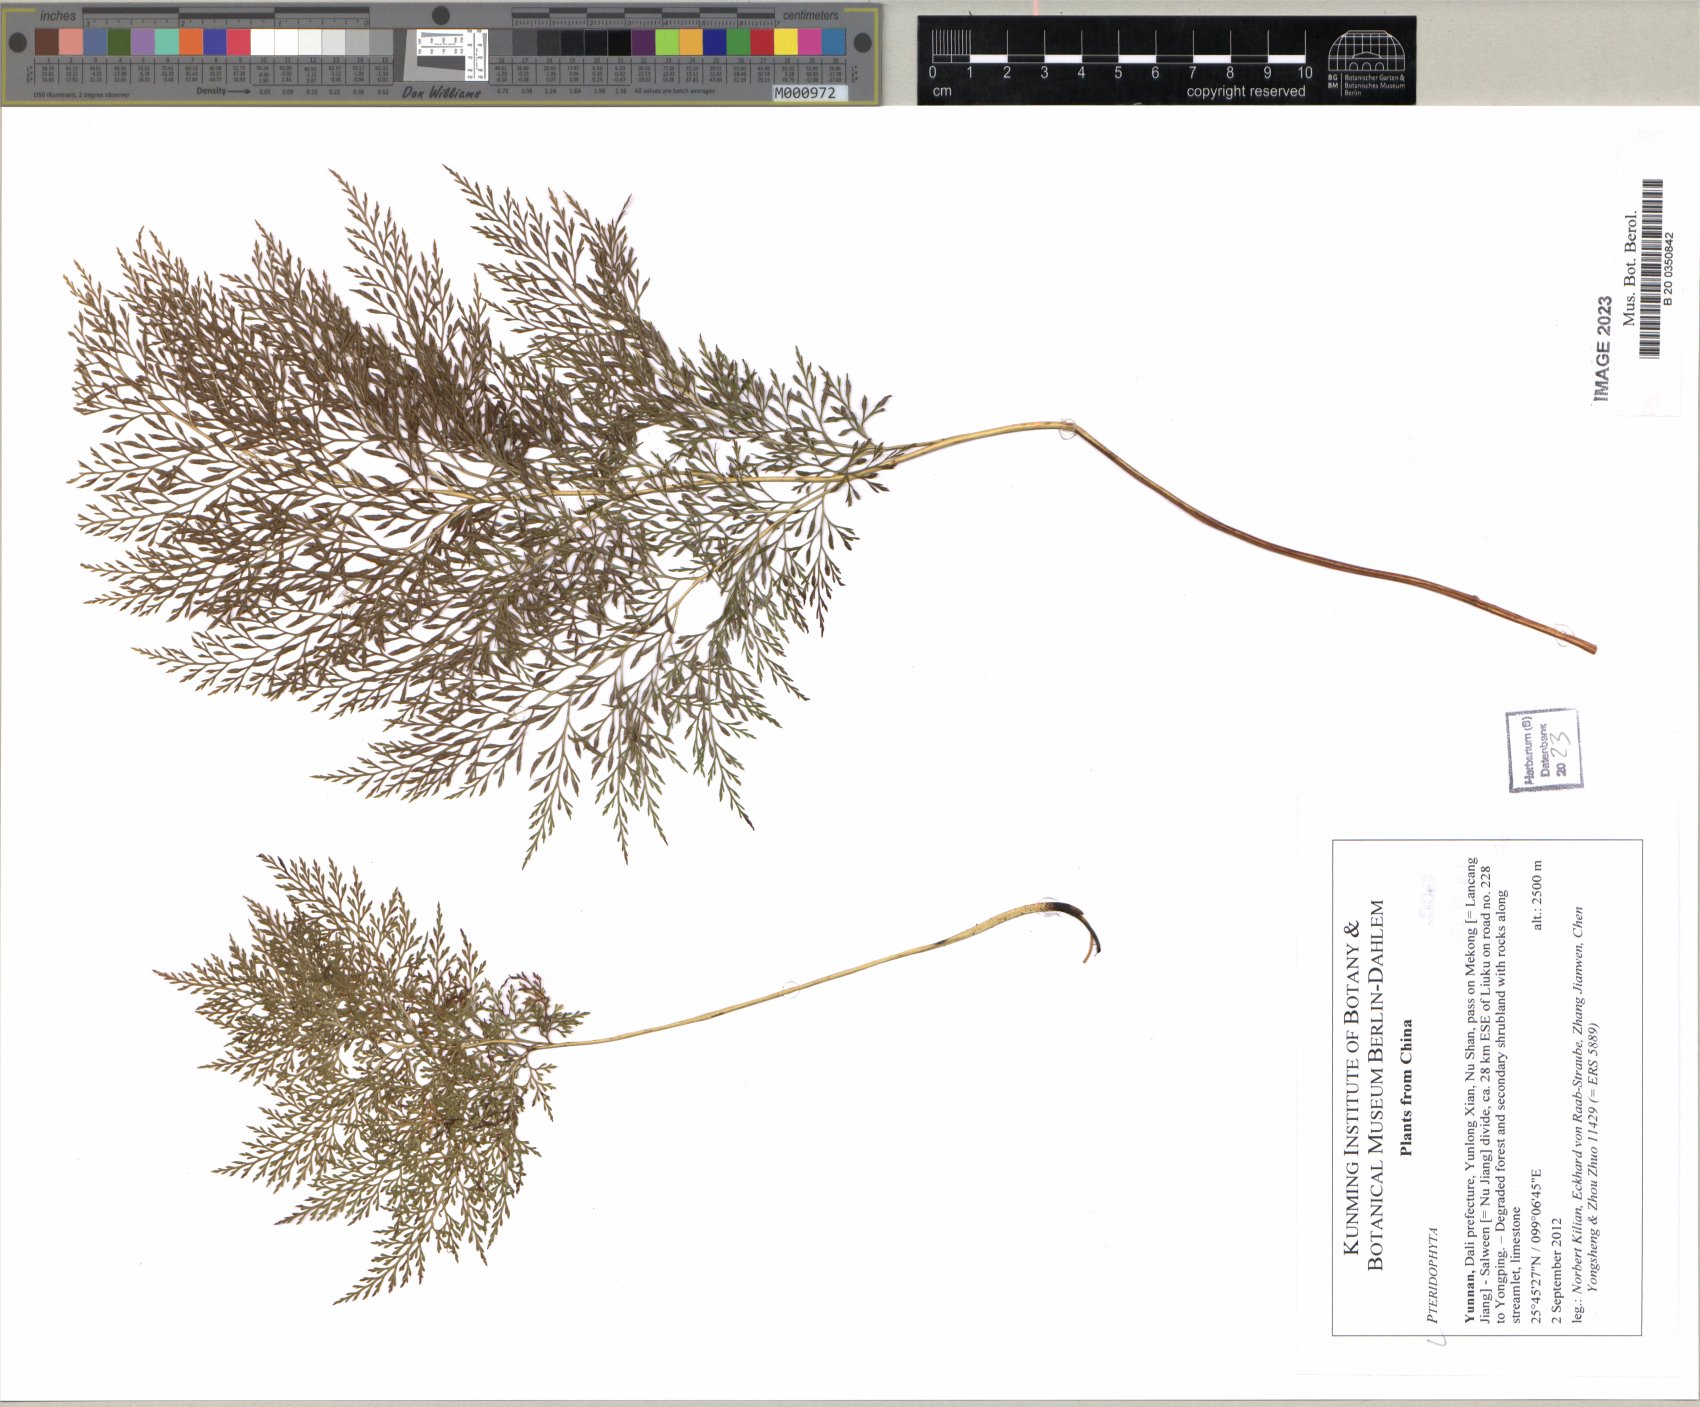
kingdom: Plantae
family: Pteridophyta
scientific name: Pteridophyta
